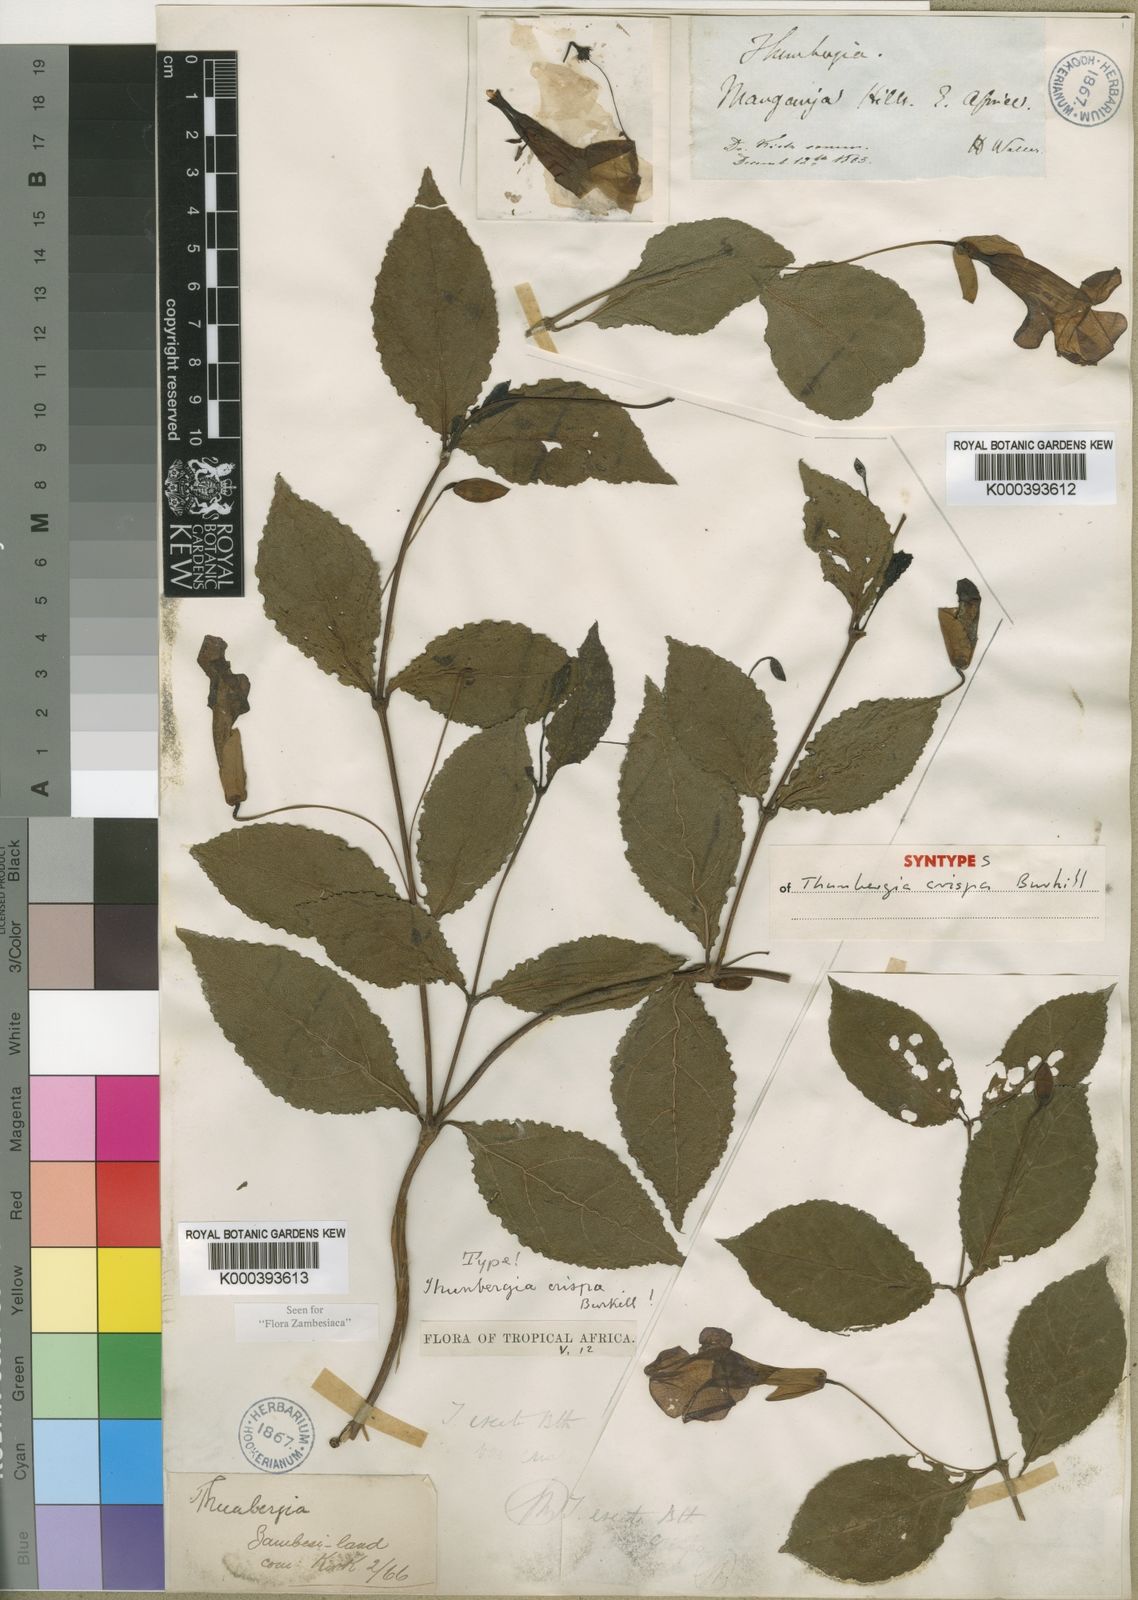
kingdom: Plantae
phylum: Tracheophyta
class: Magnoliopsida
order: Lamiales
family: Acanthaceae
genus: Thunbergia
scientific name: Thunbergia crispa
